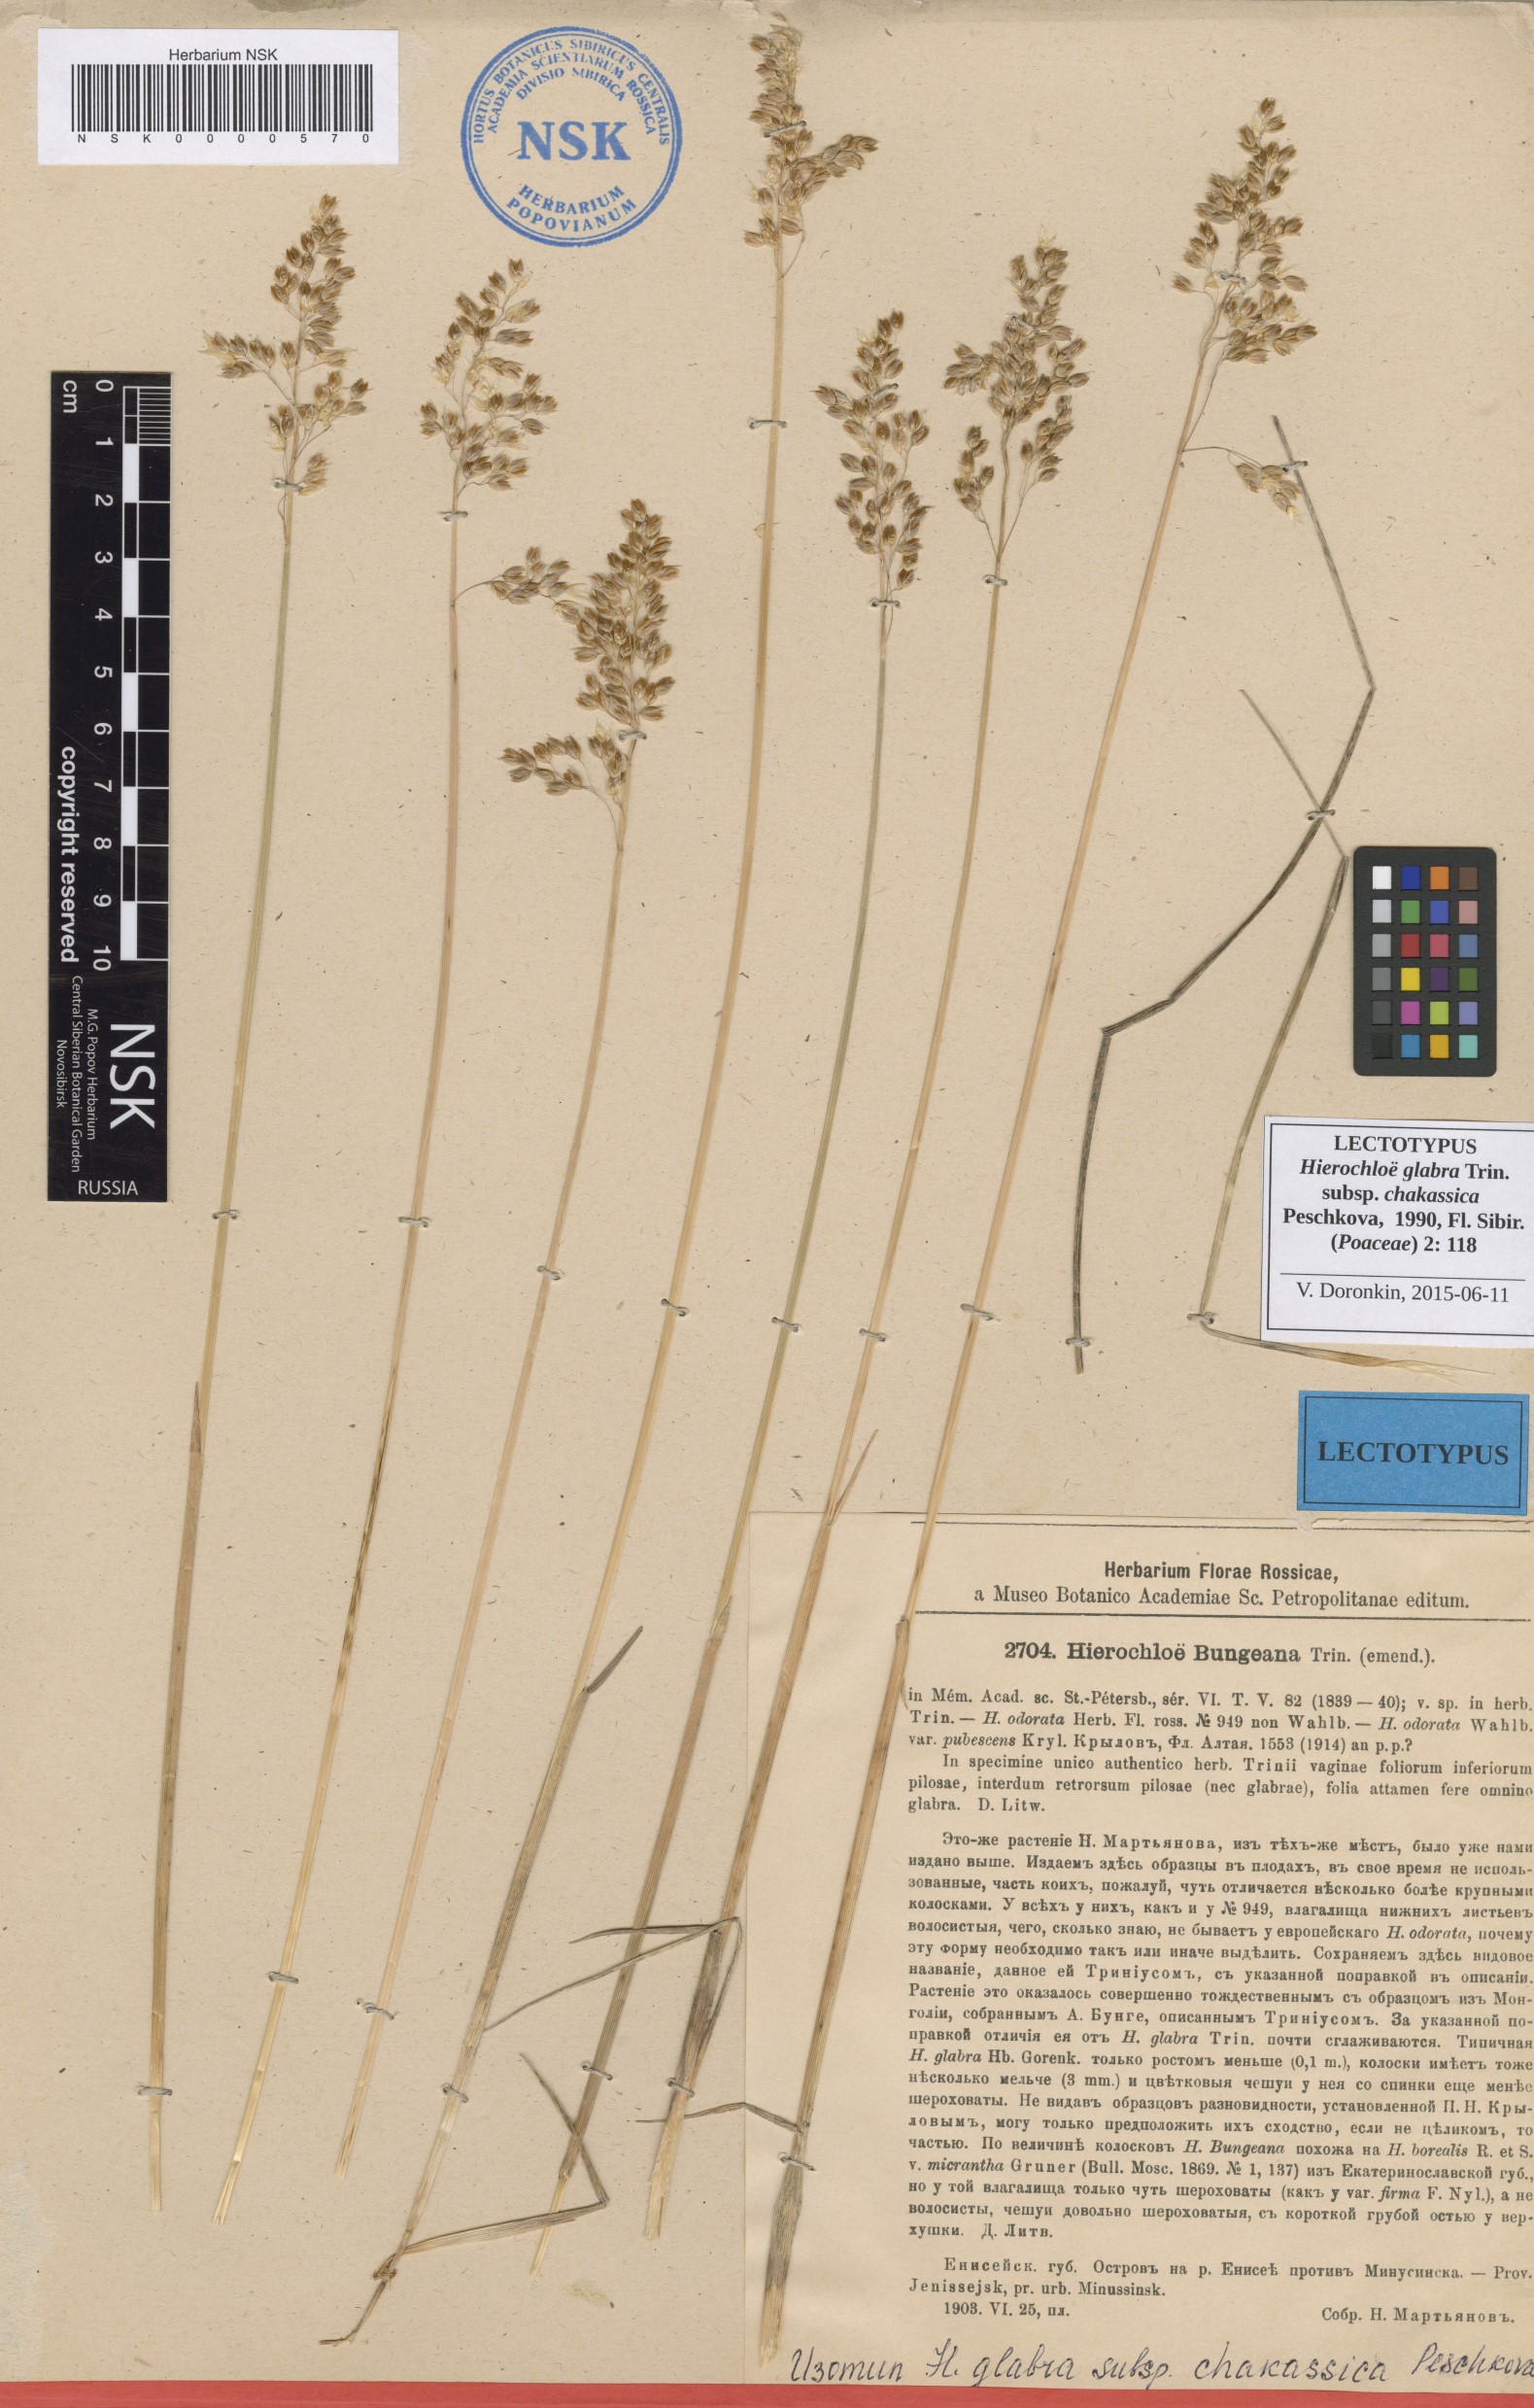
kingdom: Plantae
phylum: Tracheophyta
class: Liliopsida
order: Poales
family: Poaceae
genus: Anthoxanthum
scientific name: Anthoxanthum glabrum
